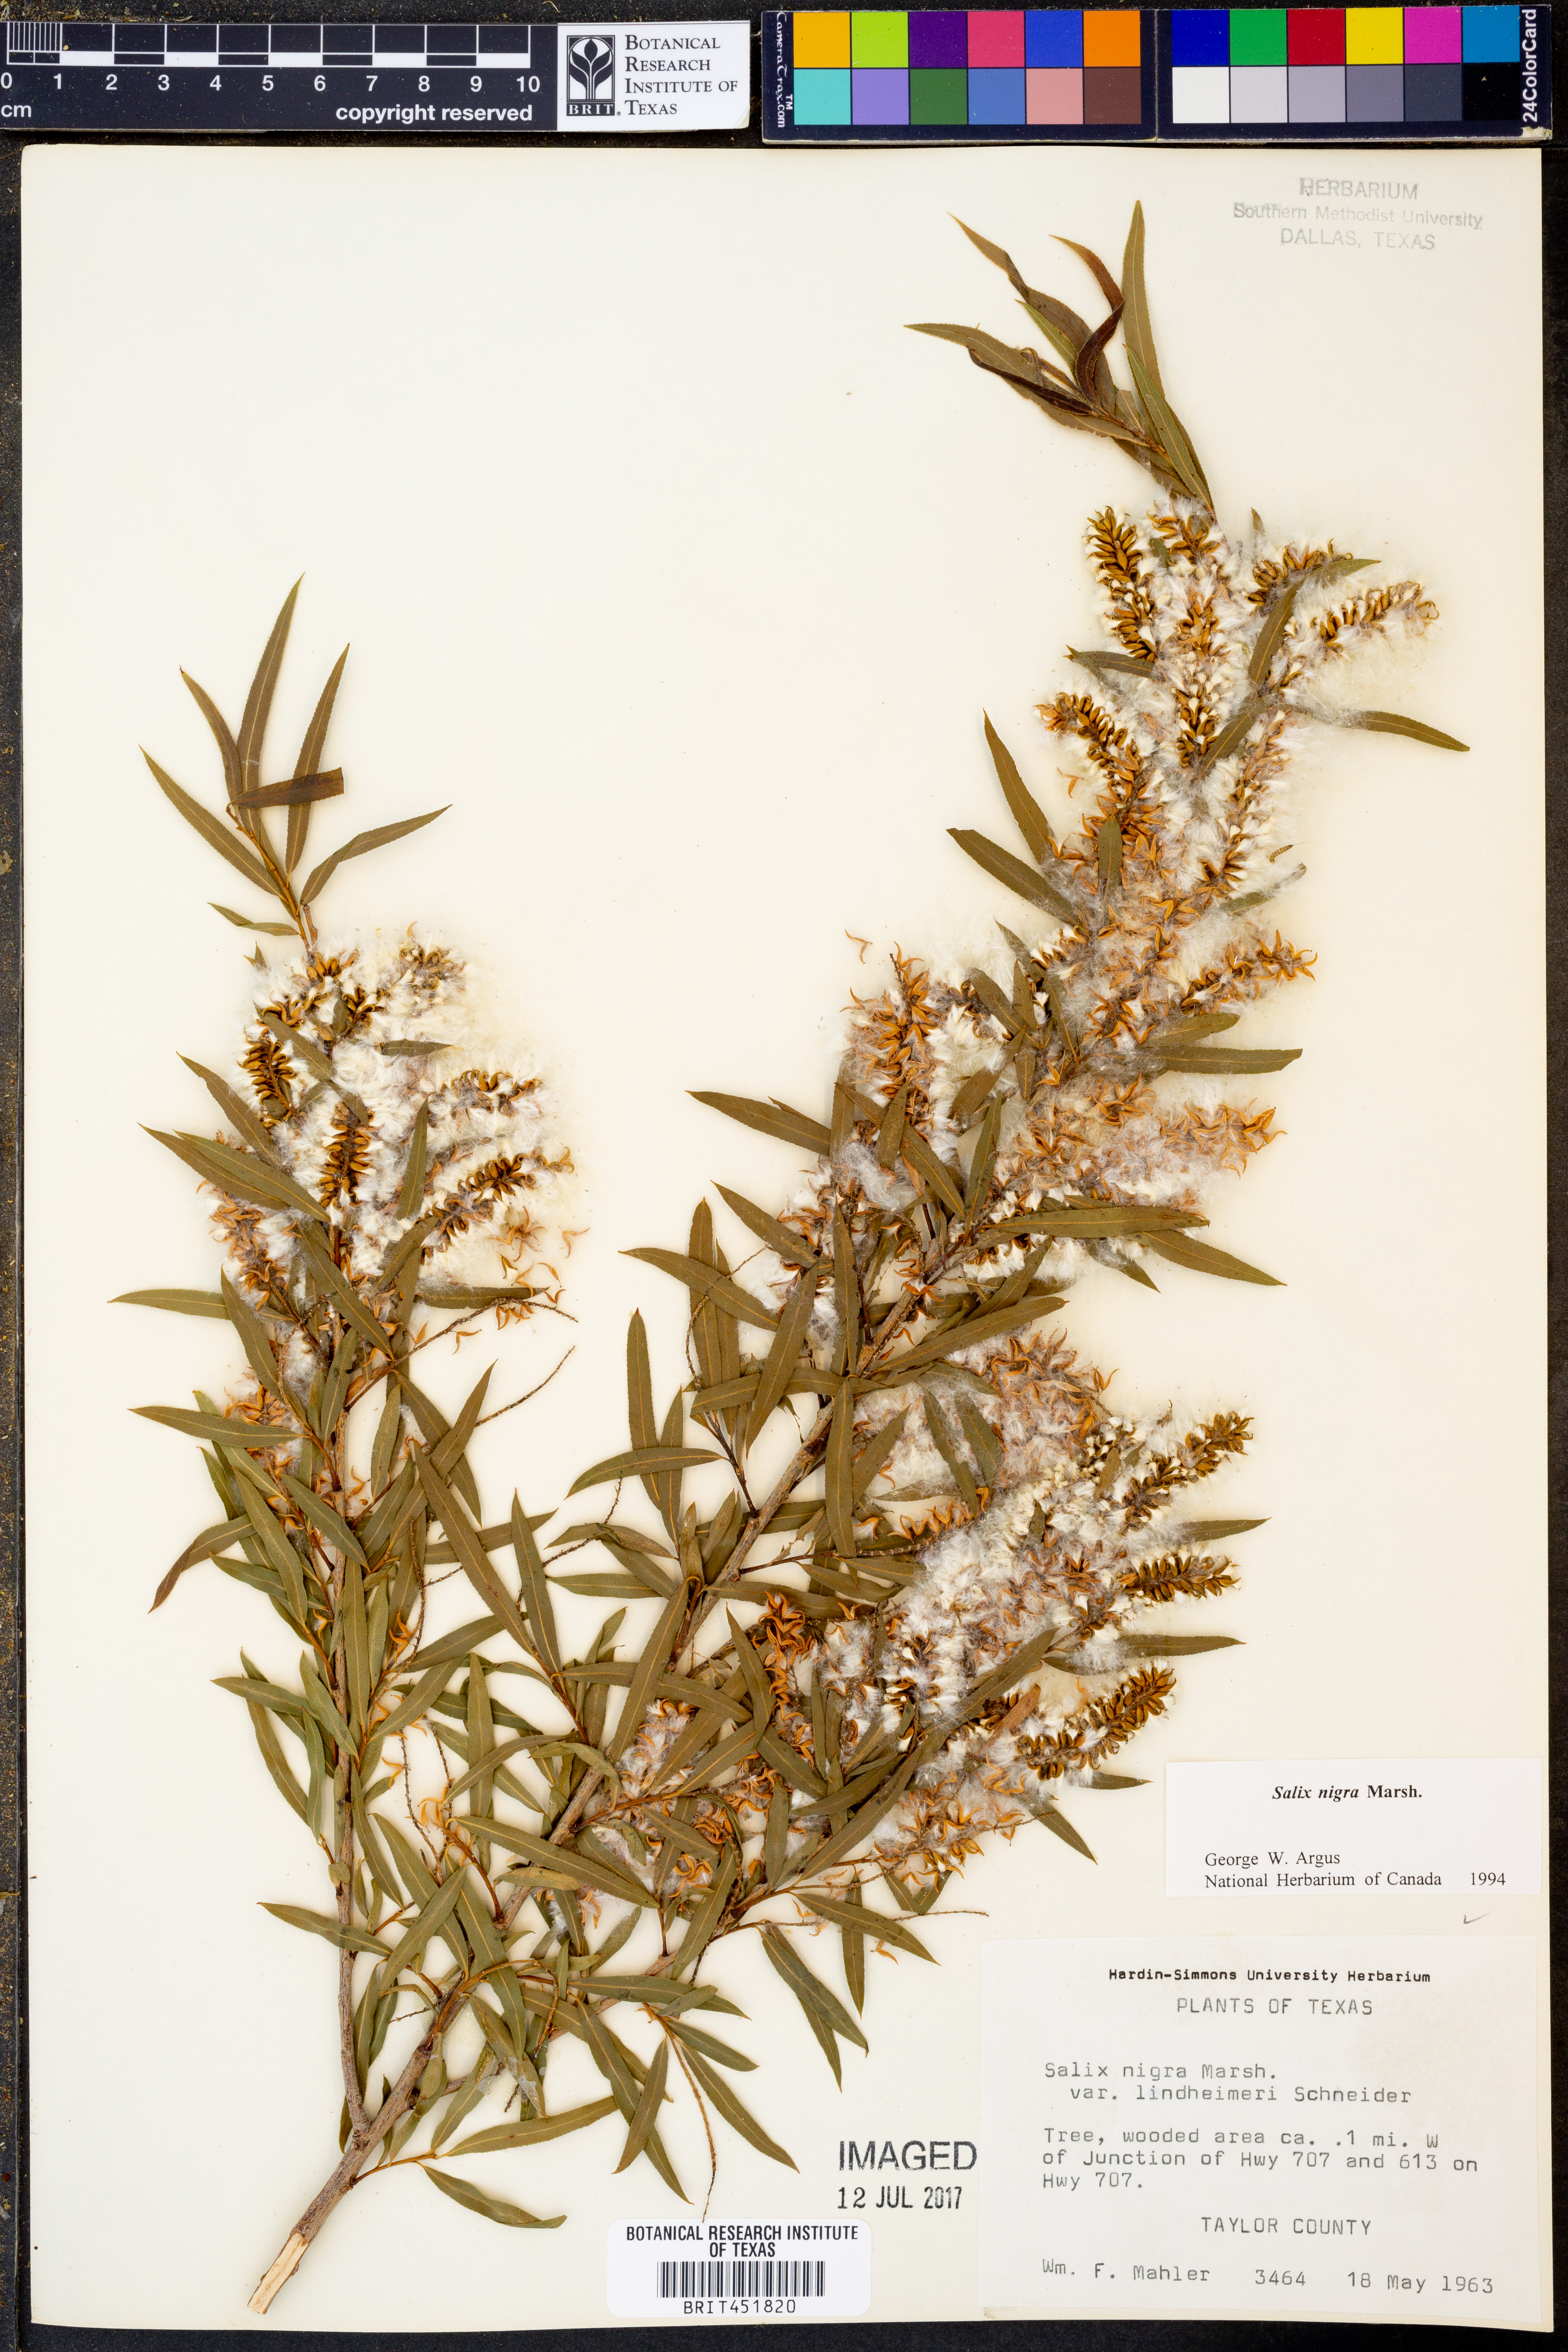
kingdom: Plantae
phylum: Tracheophyta
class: Magnoliopsida
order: Malpighiales
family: Salicaceae
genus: Salix
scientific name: Salix nigra
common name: Black willow
